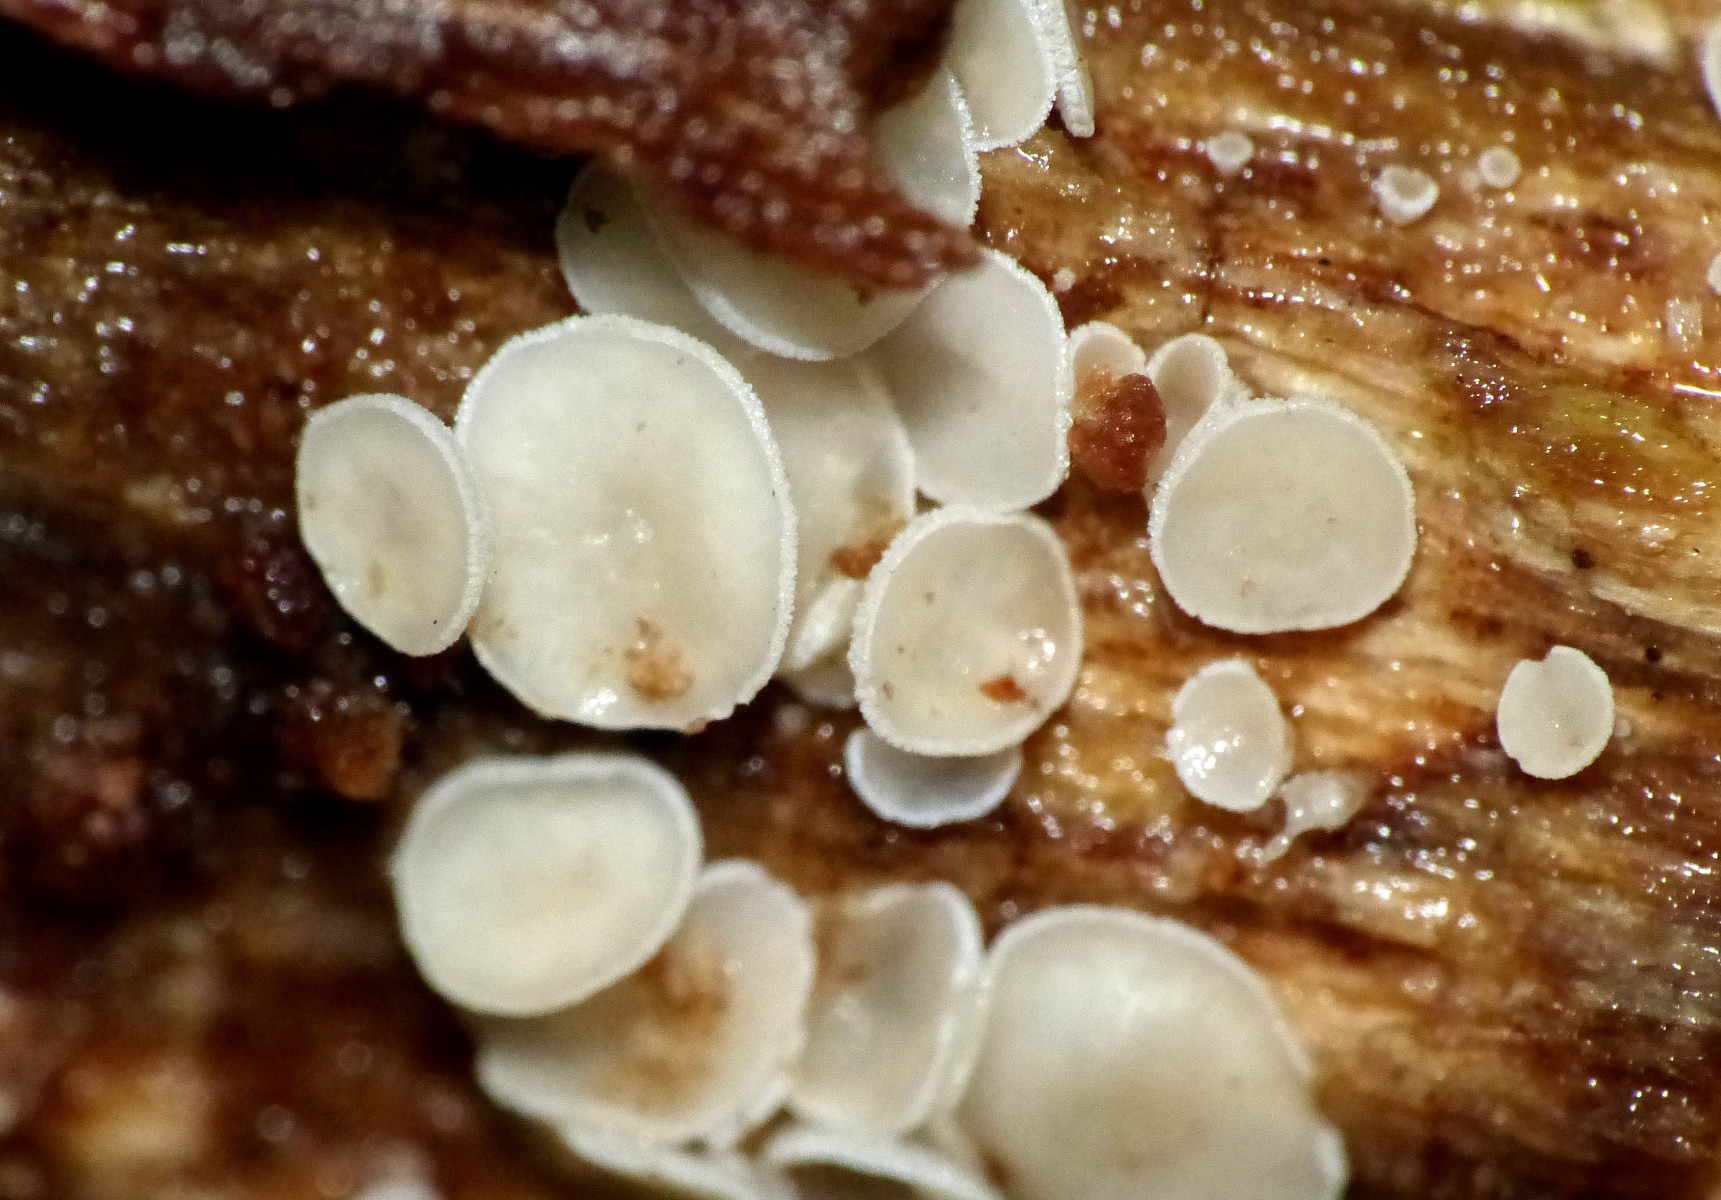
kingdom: Fungi
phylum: Ascomycota
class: Leotiomycetes
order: Helotiales
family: Lachnaceae
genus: Lachnum
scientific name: Lachnum
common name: frynseskive
